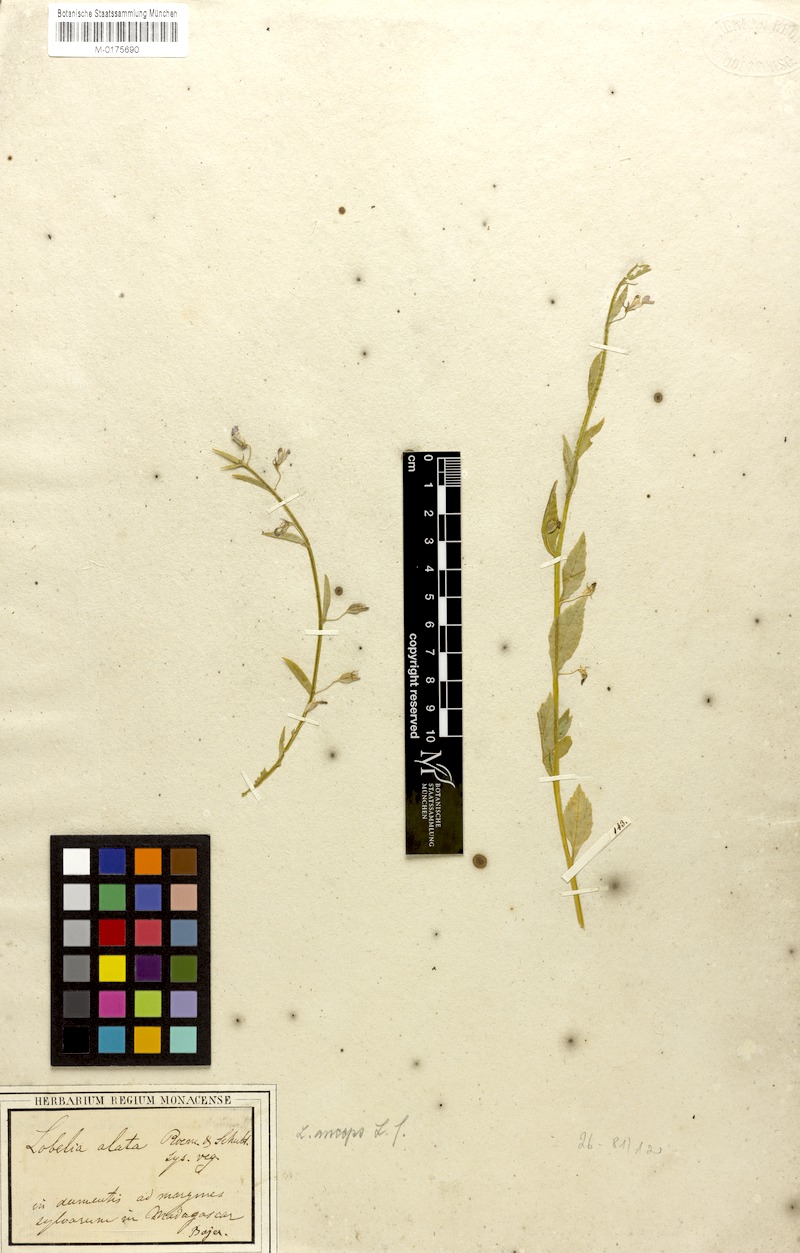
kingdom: Plantae
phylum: Tracheophyta
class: Magnoliopsida
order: Asterales
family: Campanulaceae
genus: Lobelia
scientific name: Lobelia anceps
